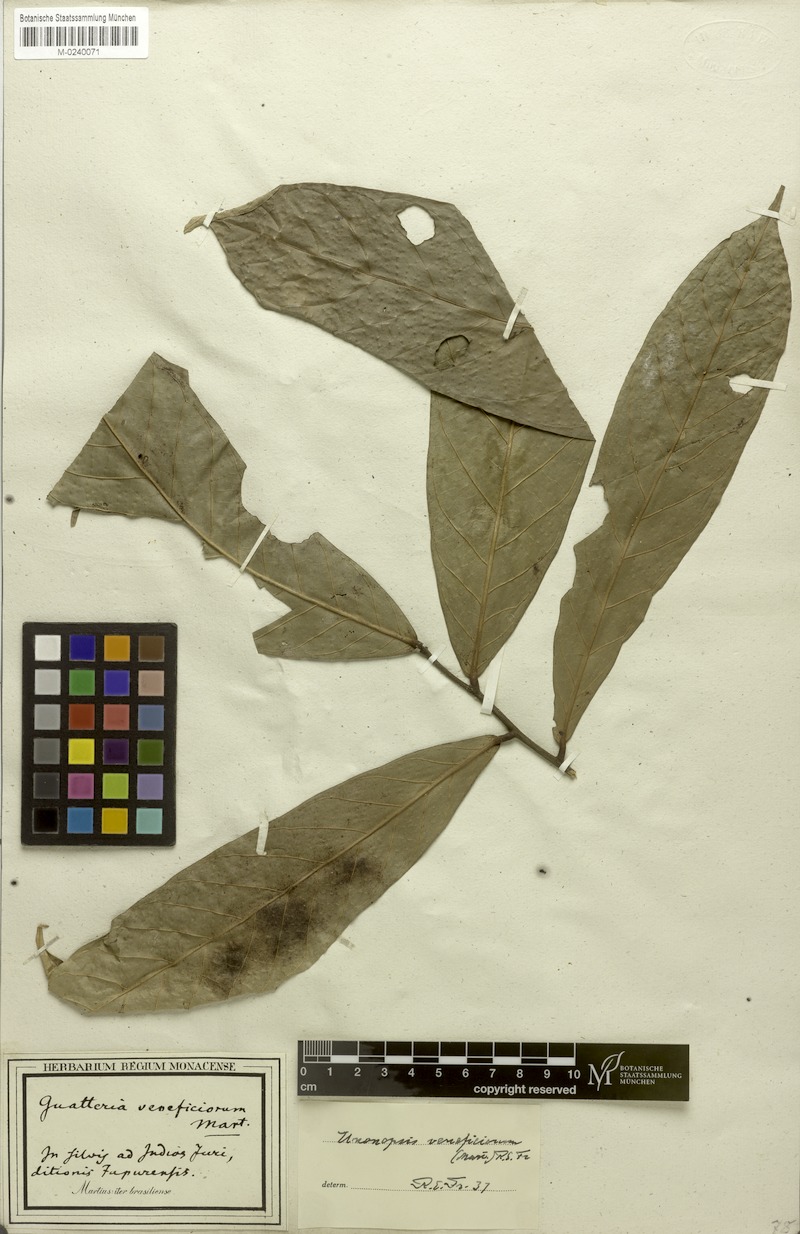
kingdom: Plantae
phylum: Tracheophyta
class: Magnoliopsida
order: Magnoliales
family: Annonaceae
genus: Unonopsis
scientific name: Unonopsis veneficiorum
